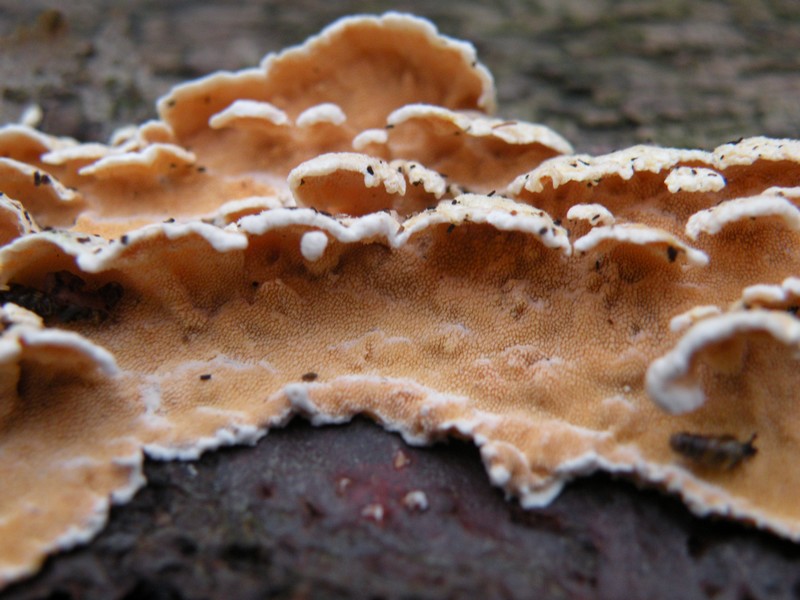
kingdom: Fungi
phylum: Basidiomycota
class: Agaricomycetes
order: Polyporales
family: Steccherinaceae
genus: Steccherinum
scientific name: Steccherinum ochraceum
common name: almindelig skønpig
